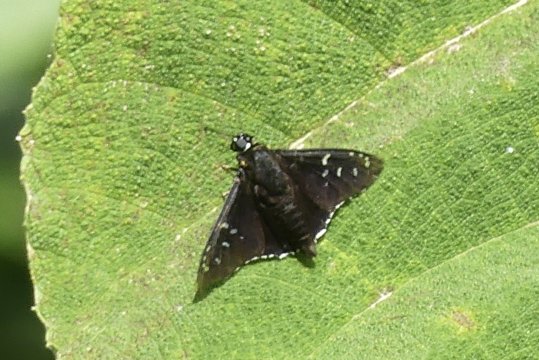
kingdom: Animalia
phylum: Arthropoda
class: Insecta
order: Lepidoptera
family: Hesperiidae
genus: Melanopyge
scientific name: Melanopyge
